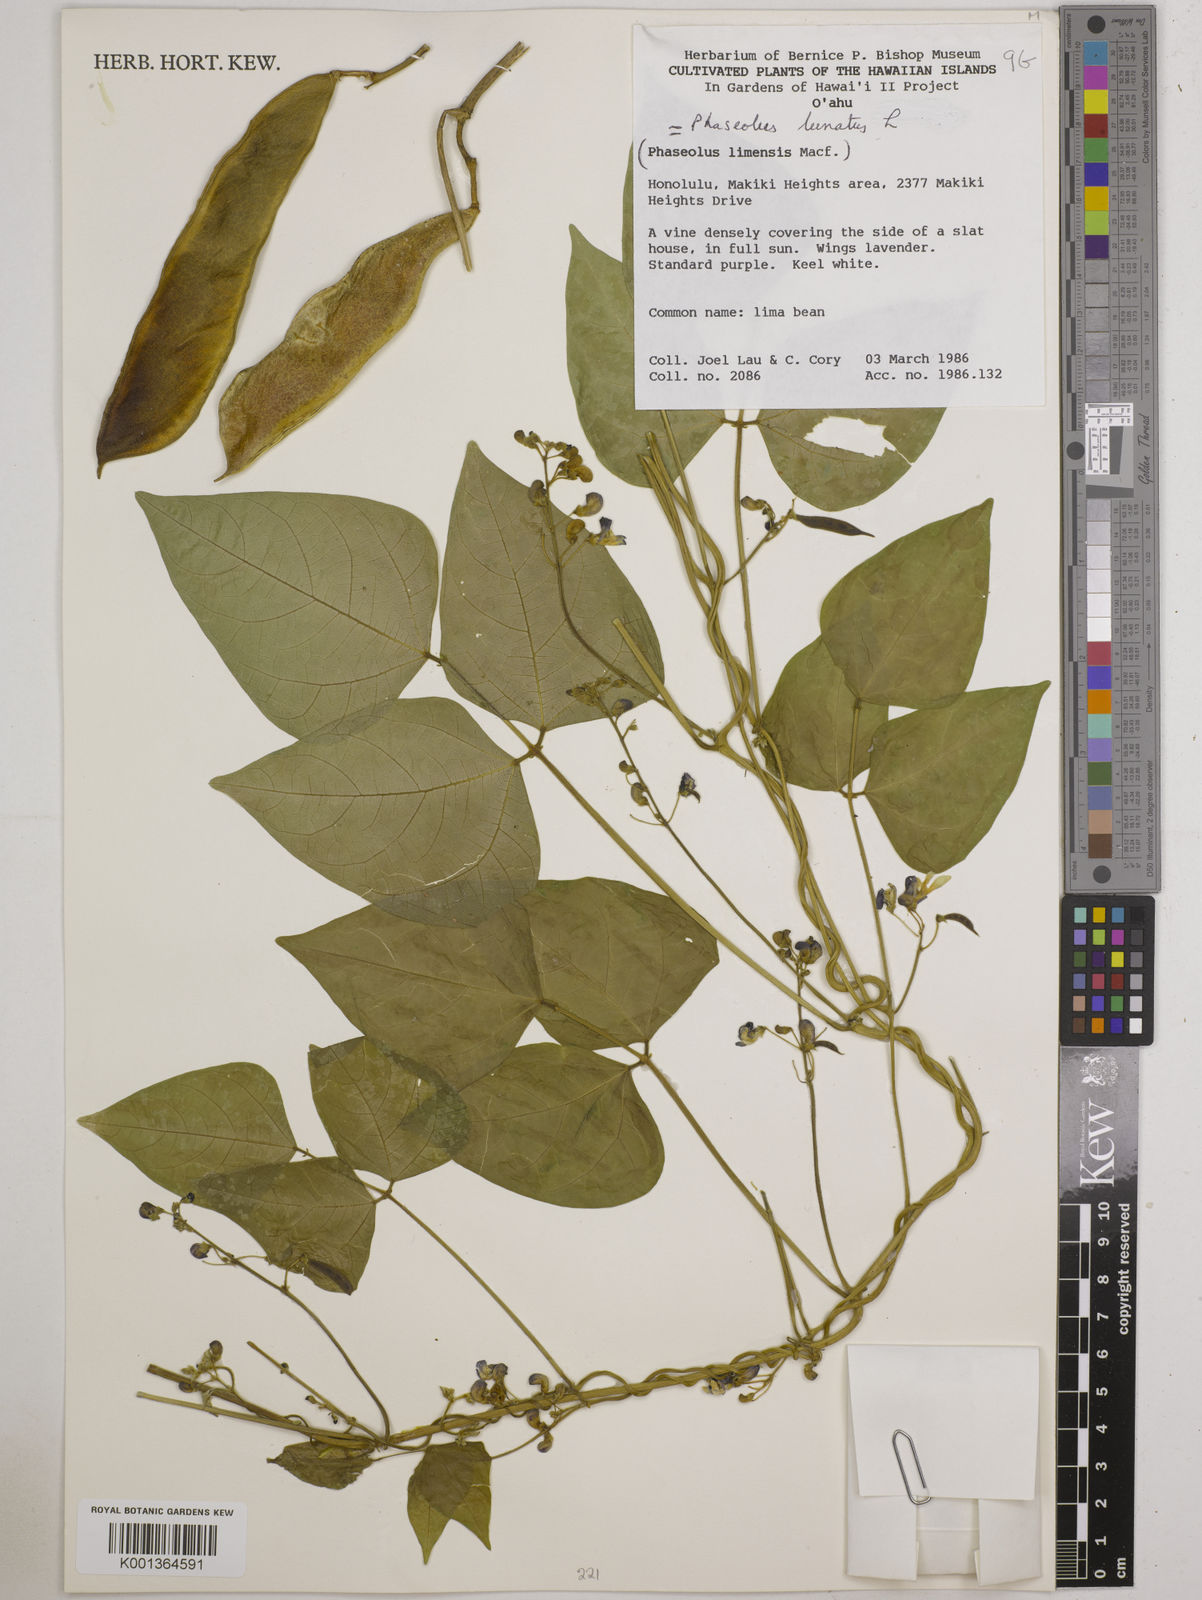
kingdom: Plantae
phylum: Tracheophyta
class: Magnoliopsida
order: Fabales
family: Fabaceae
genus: Phaseolus
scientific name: Phaseolus lunatus
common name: Sieva bean
